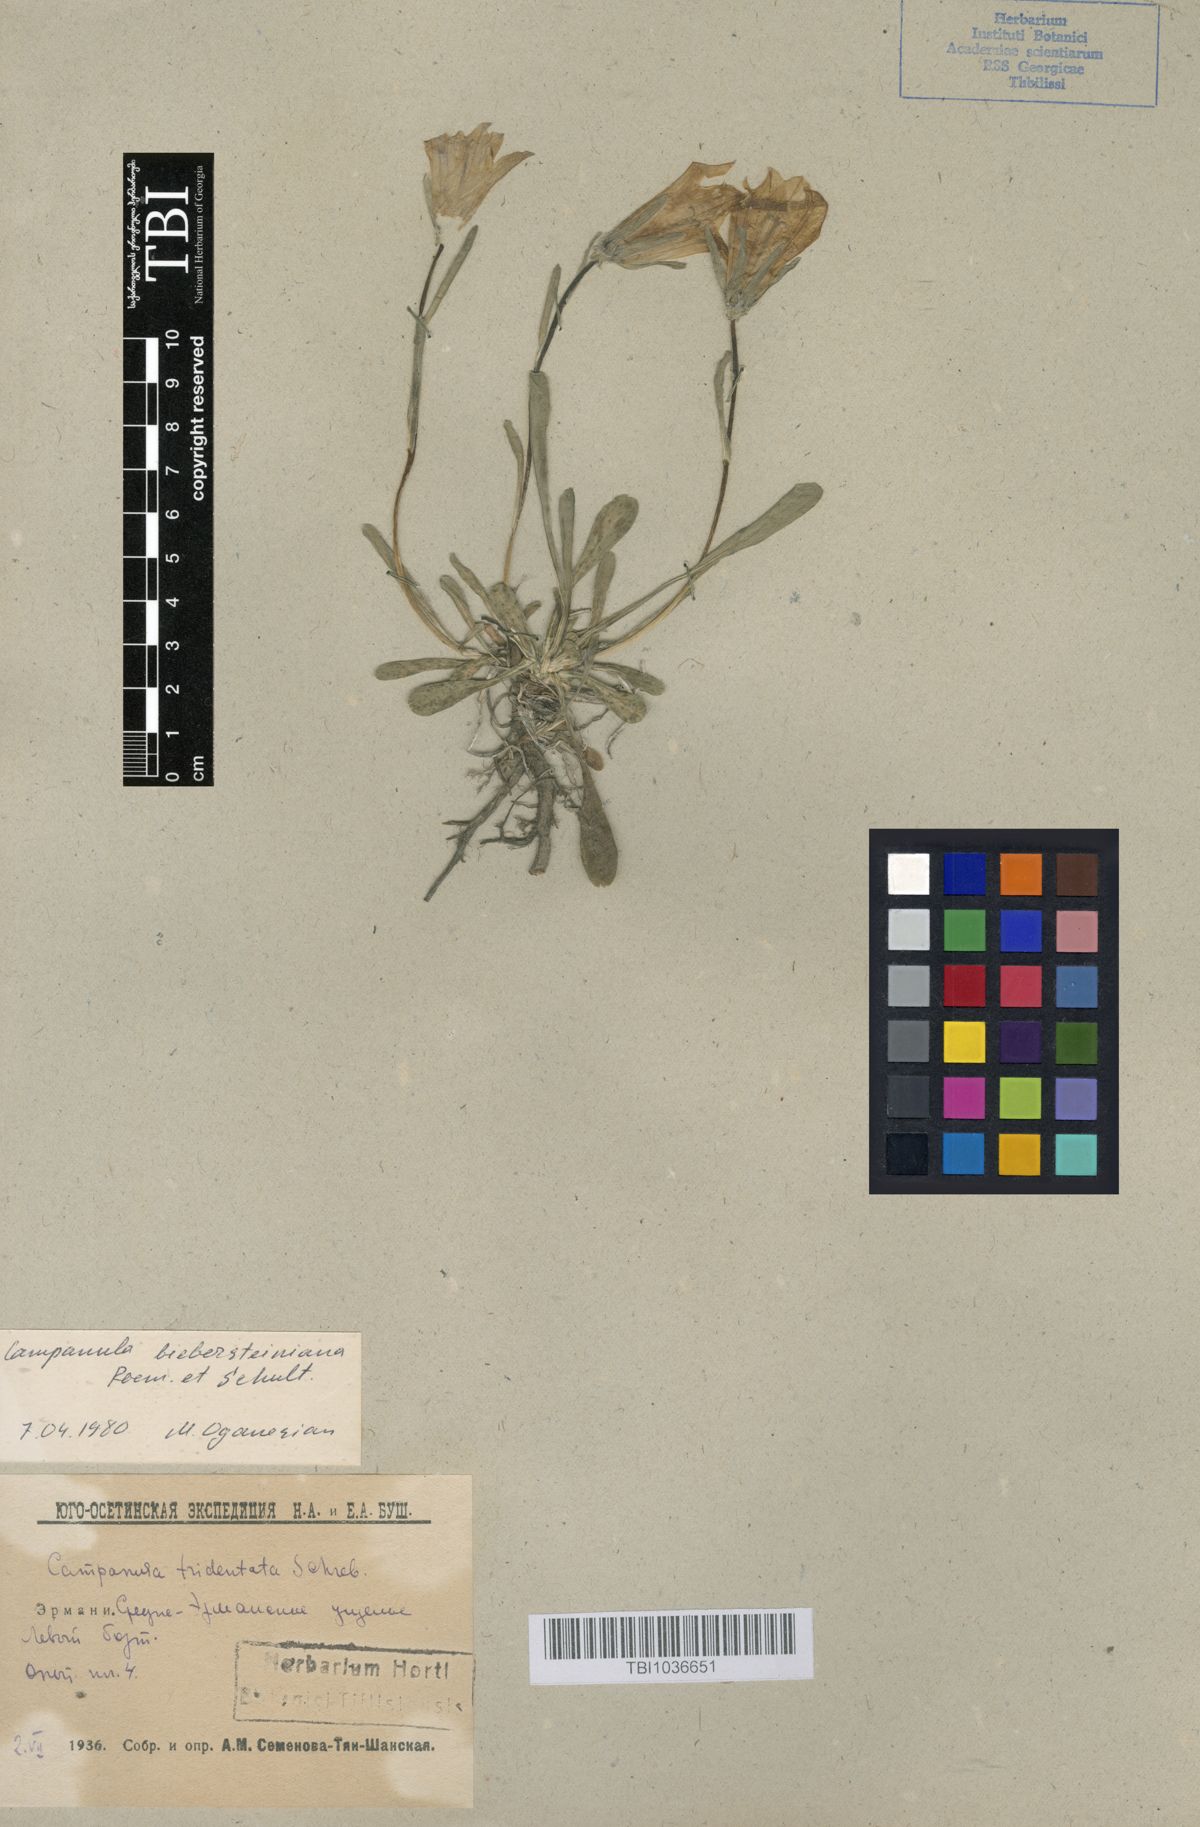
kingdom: Plantae
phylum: Tracheophyta
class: Magnoliopsida
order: Asterales
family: Campanulaceae
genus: Campanula
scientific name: Campanula tridentata
